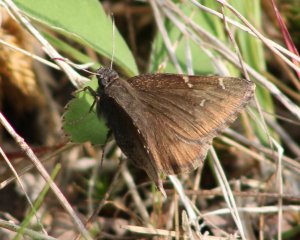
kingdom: Animalia
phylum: Arthropoda
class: Insecta
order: Lepidoptera
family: Hesperiidae
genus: Gesta
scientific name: Gesta
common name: Juvenal's Duskywing
